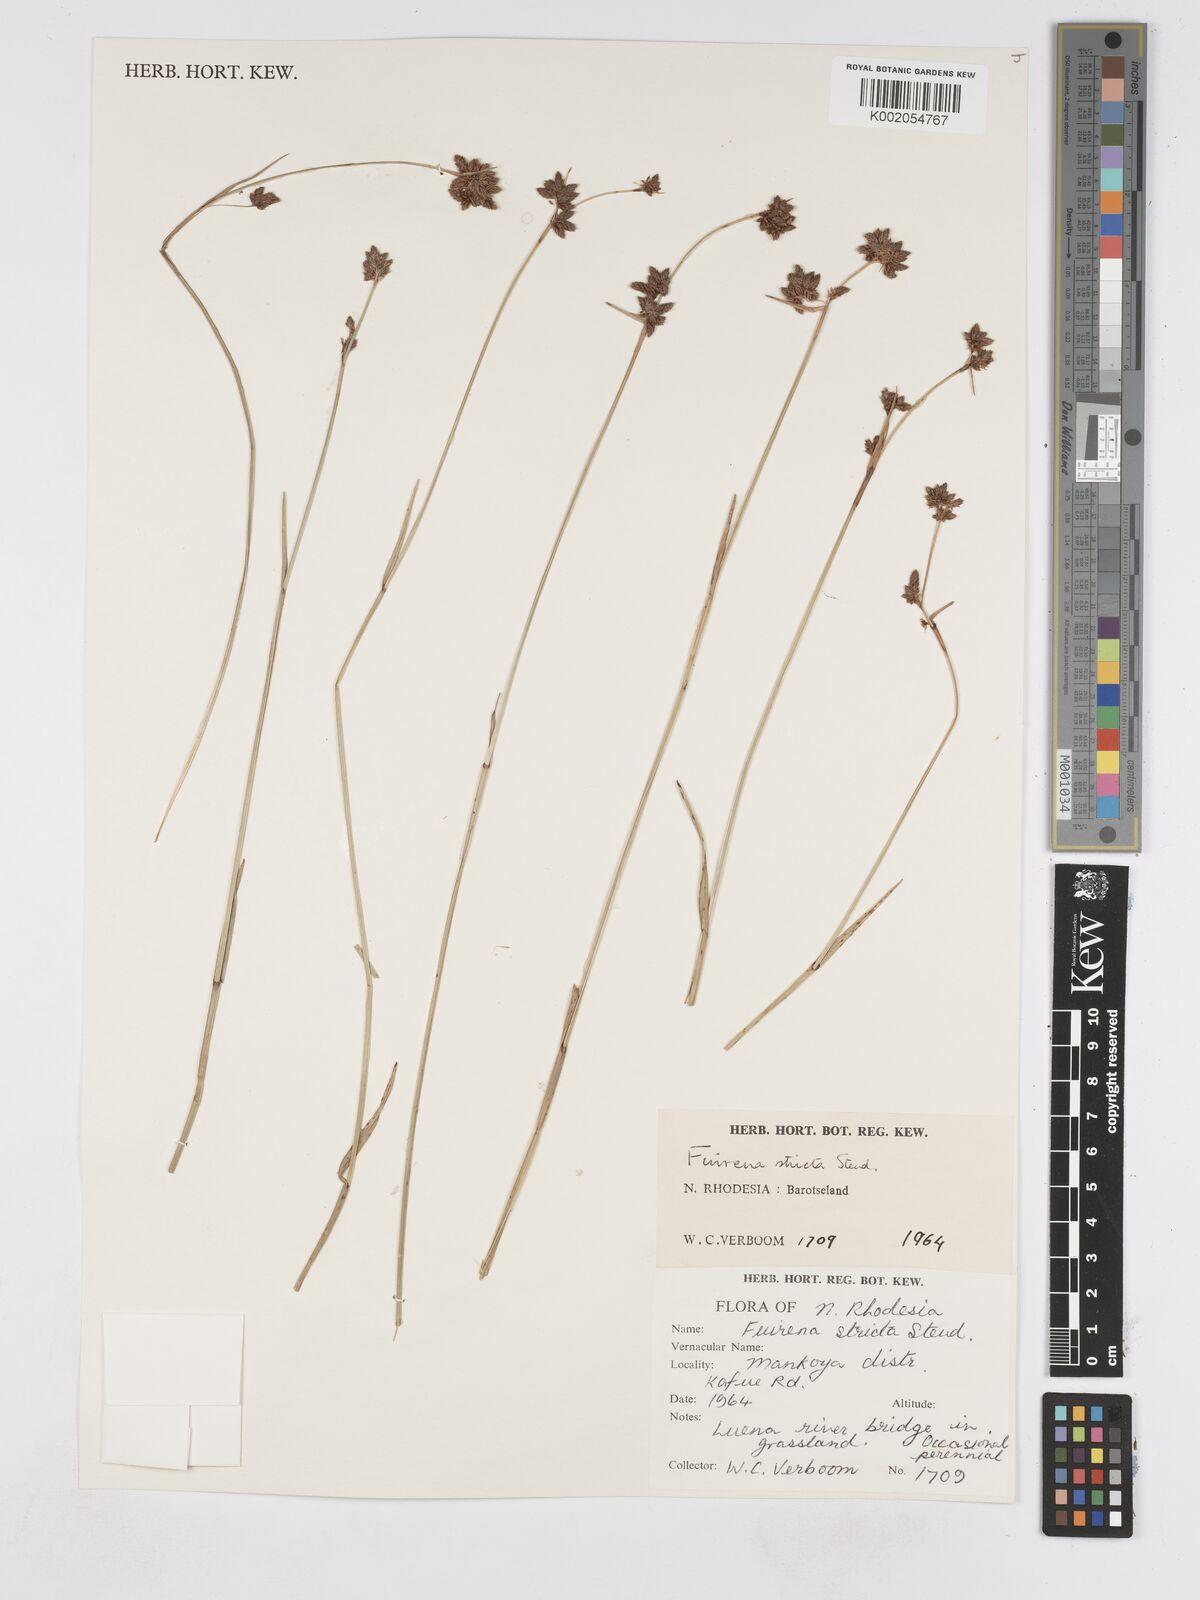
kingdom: Plantae
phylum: Tracheophyta
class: Liliopsida
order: Poales
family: Cyperaceae
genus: Fuirena
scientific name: Fuirena stricta
